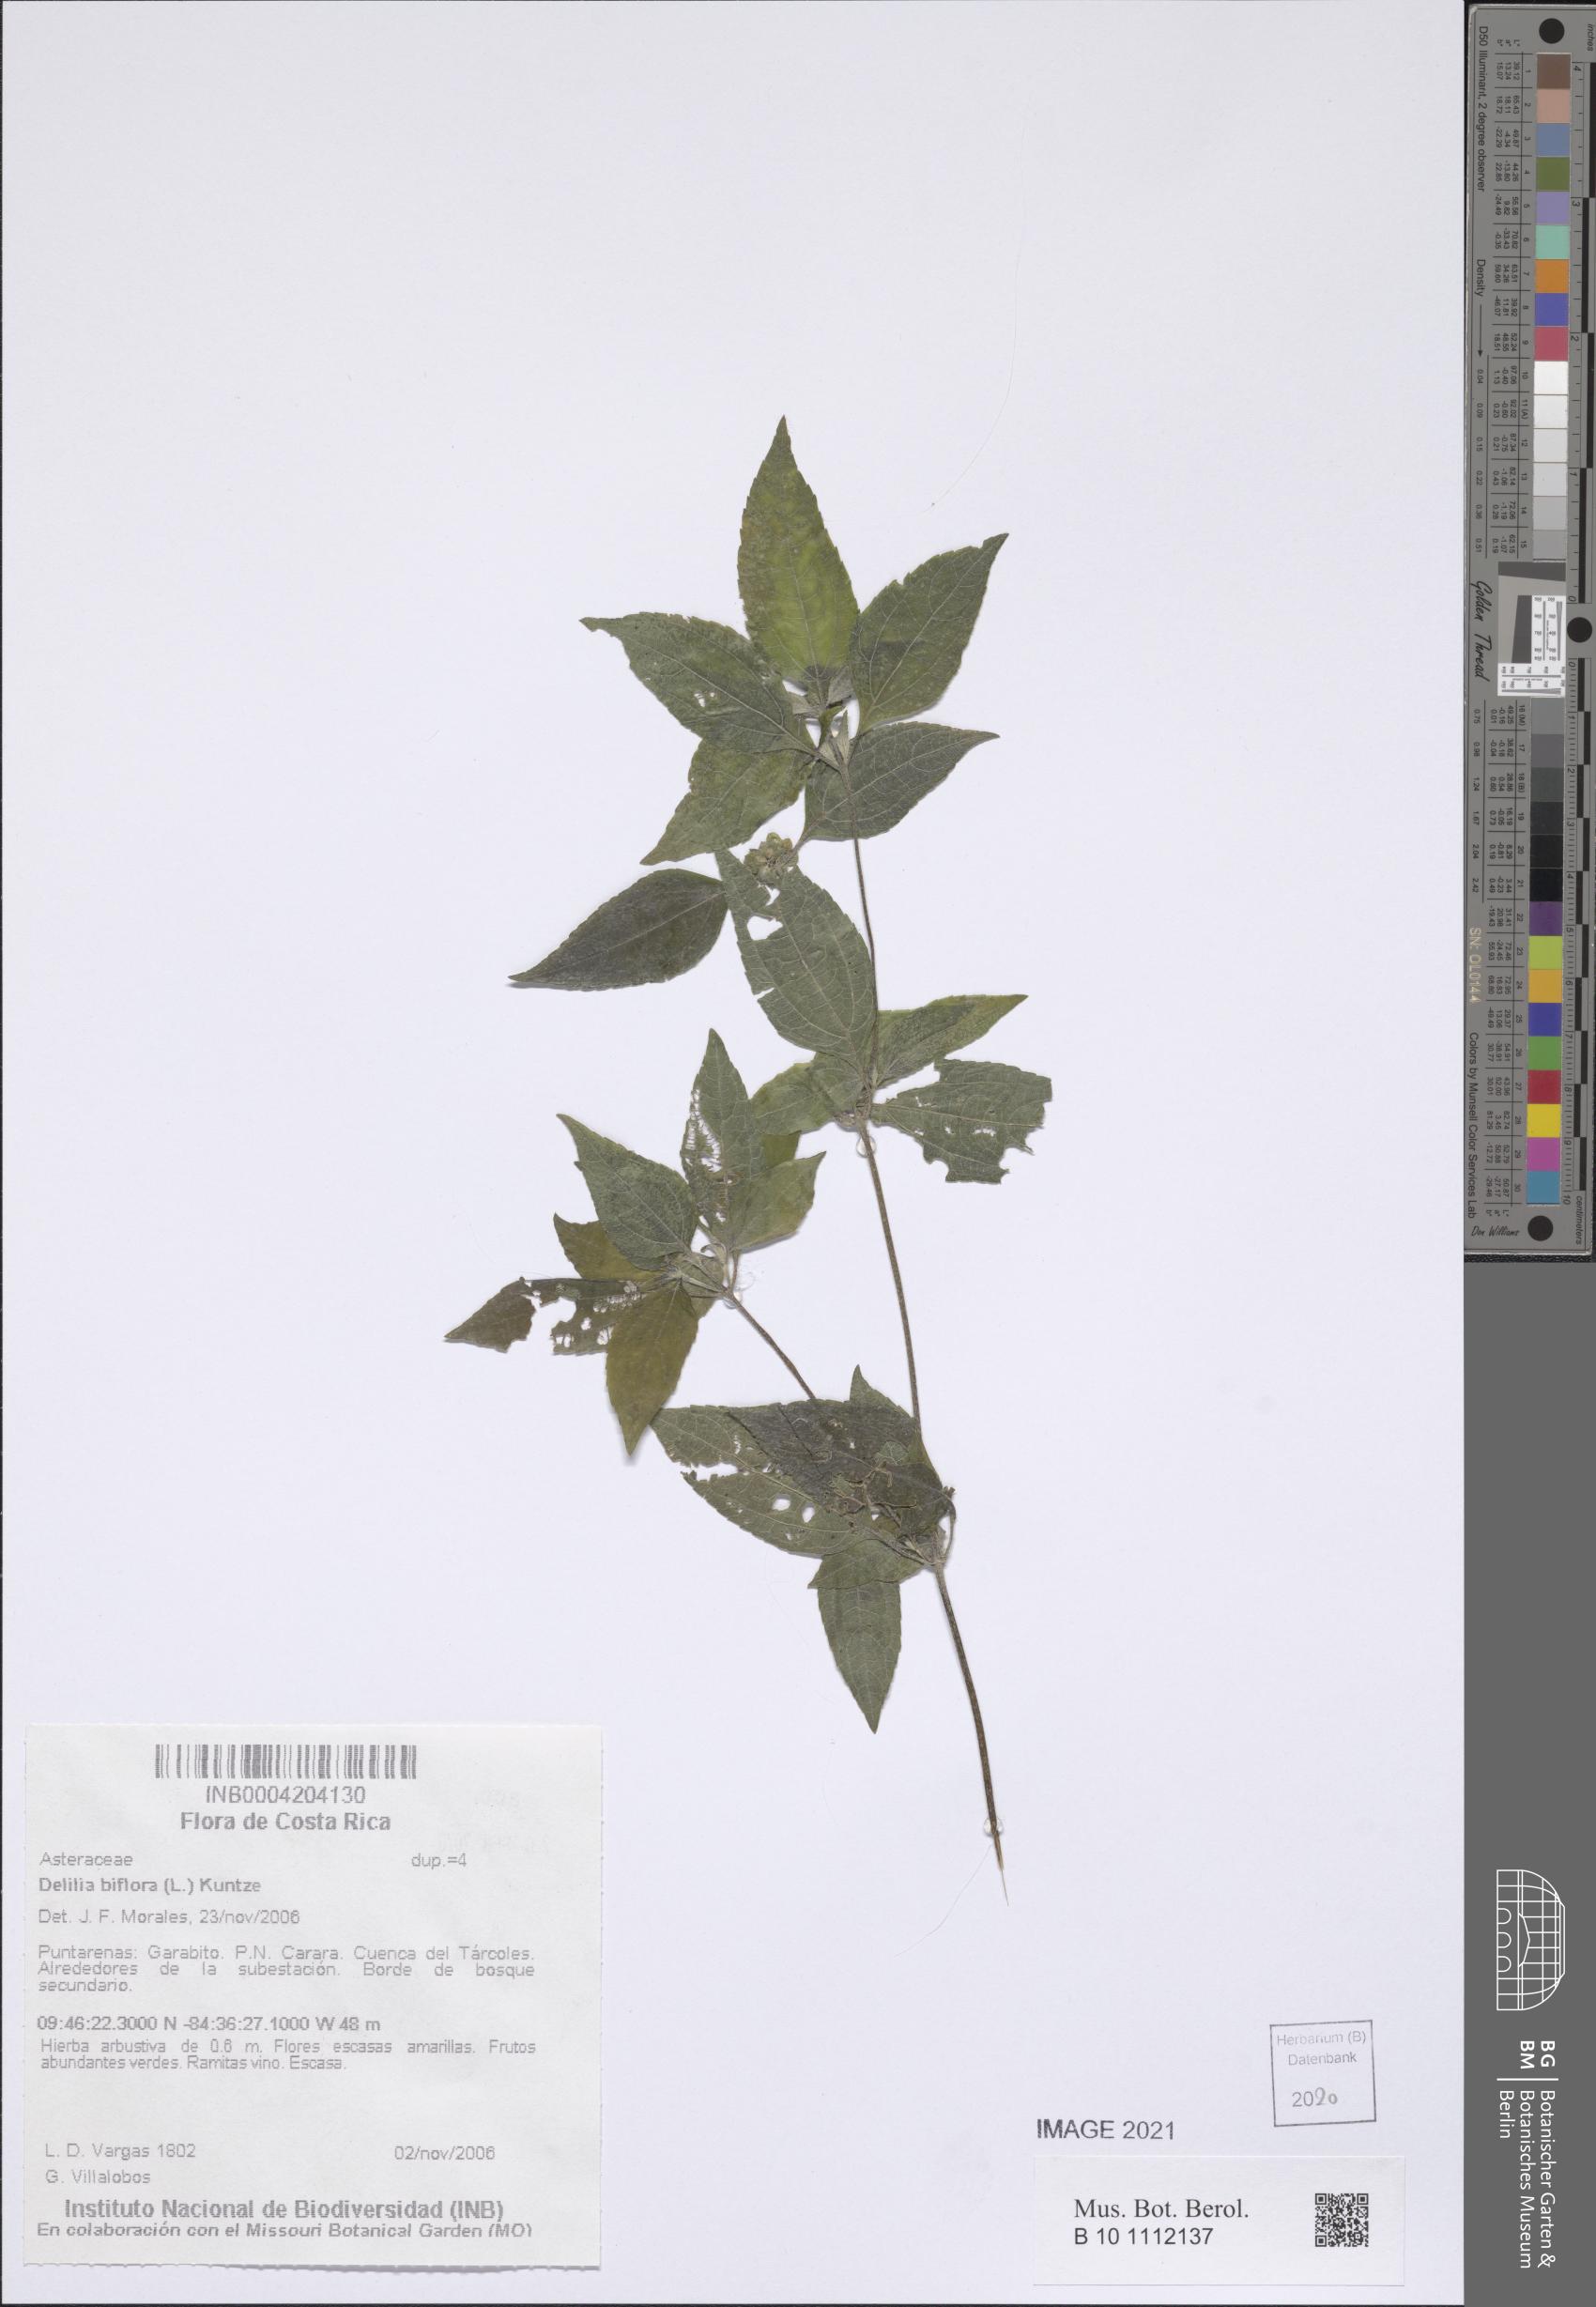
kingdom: Plantae
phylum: Tracheophyta
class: Magnoliopsida
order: Asterales
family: Asteraceae
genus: Delilia
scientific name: Delilia biflora
